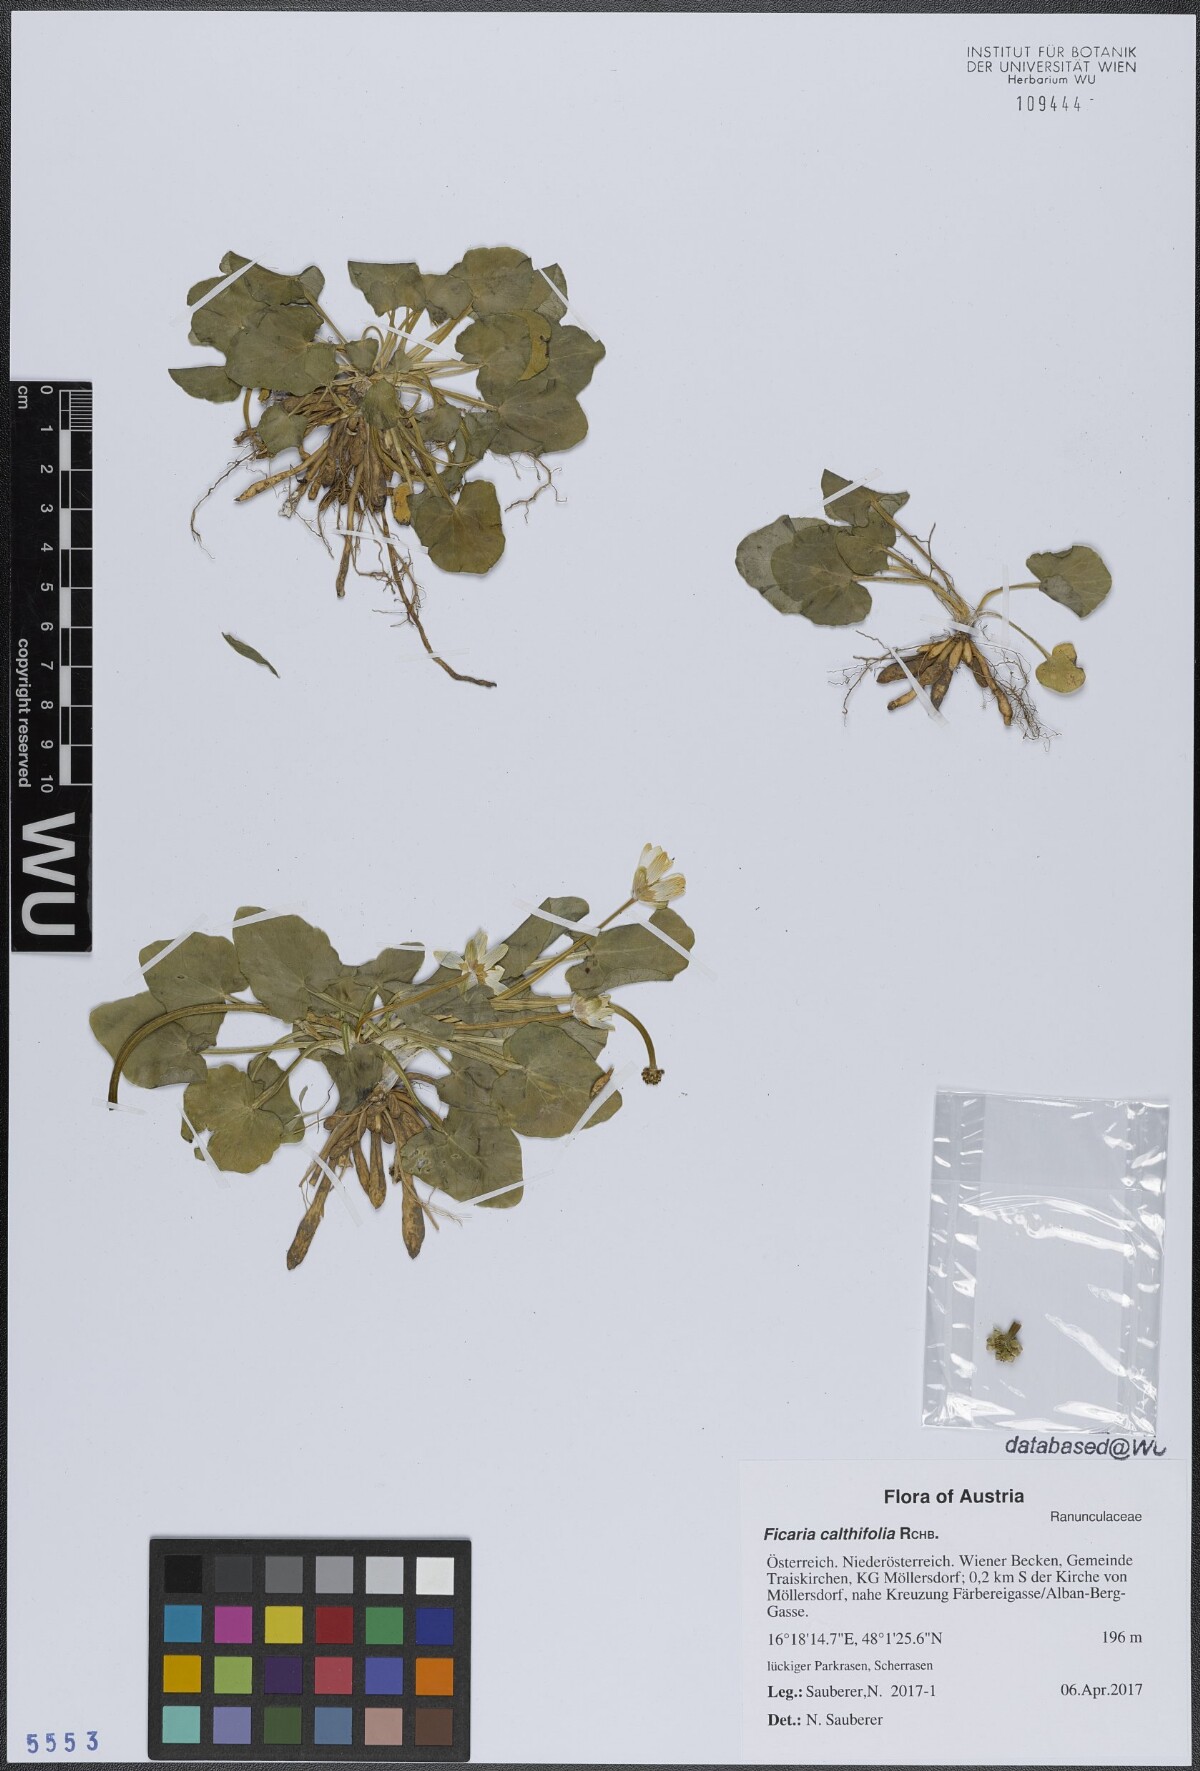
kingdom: Plantae
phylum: Tracheophyta
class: Magnoliopsida
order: Ranunculales
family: Ranunculaceae
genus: Ficaria
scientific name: Ficaria calthifolia
